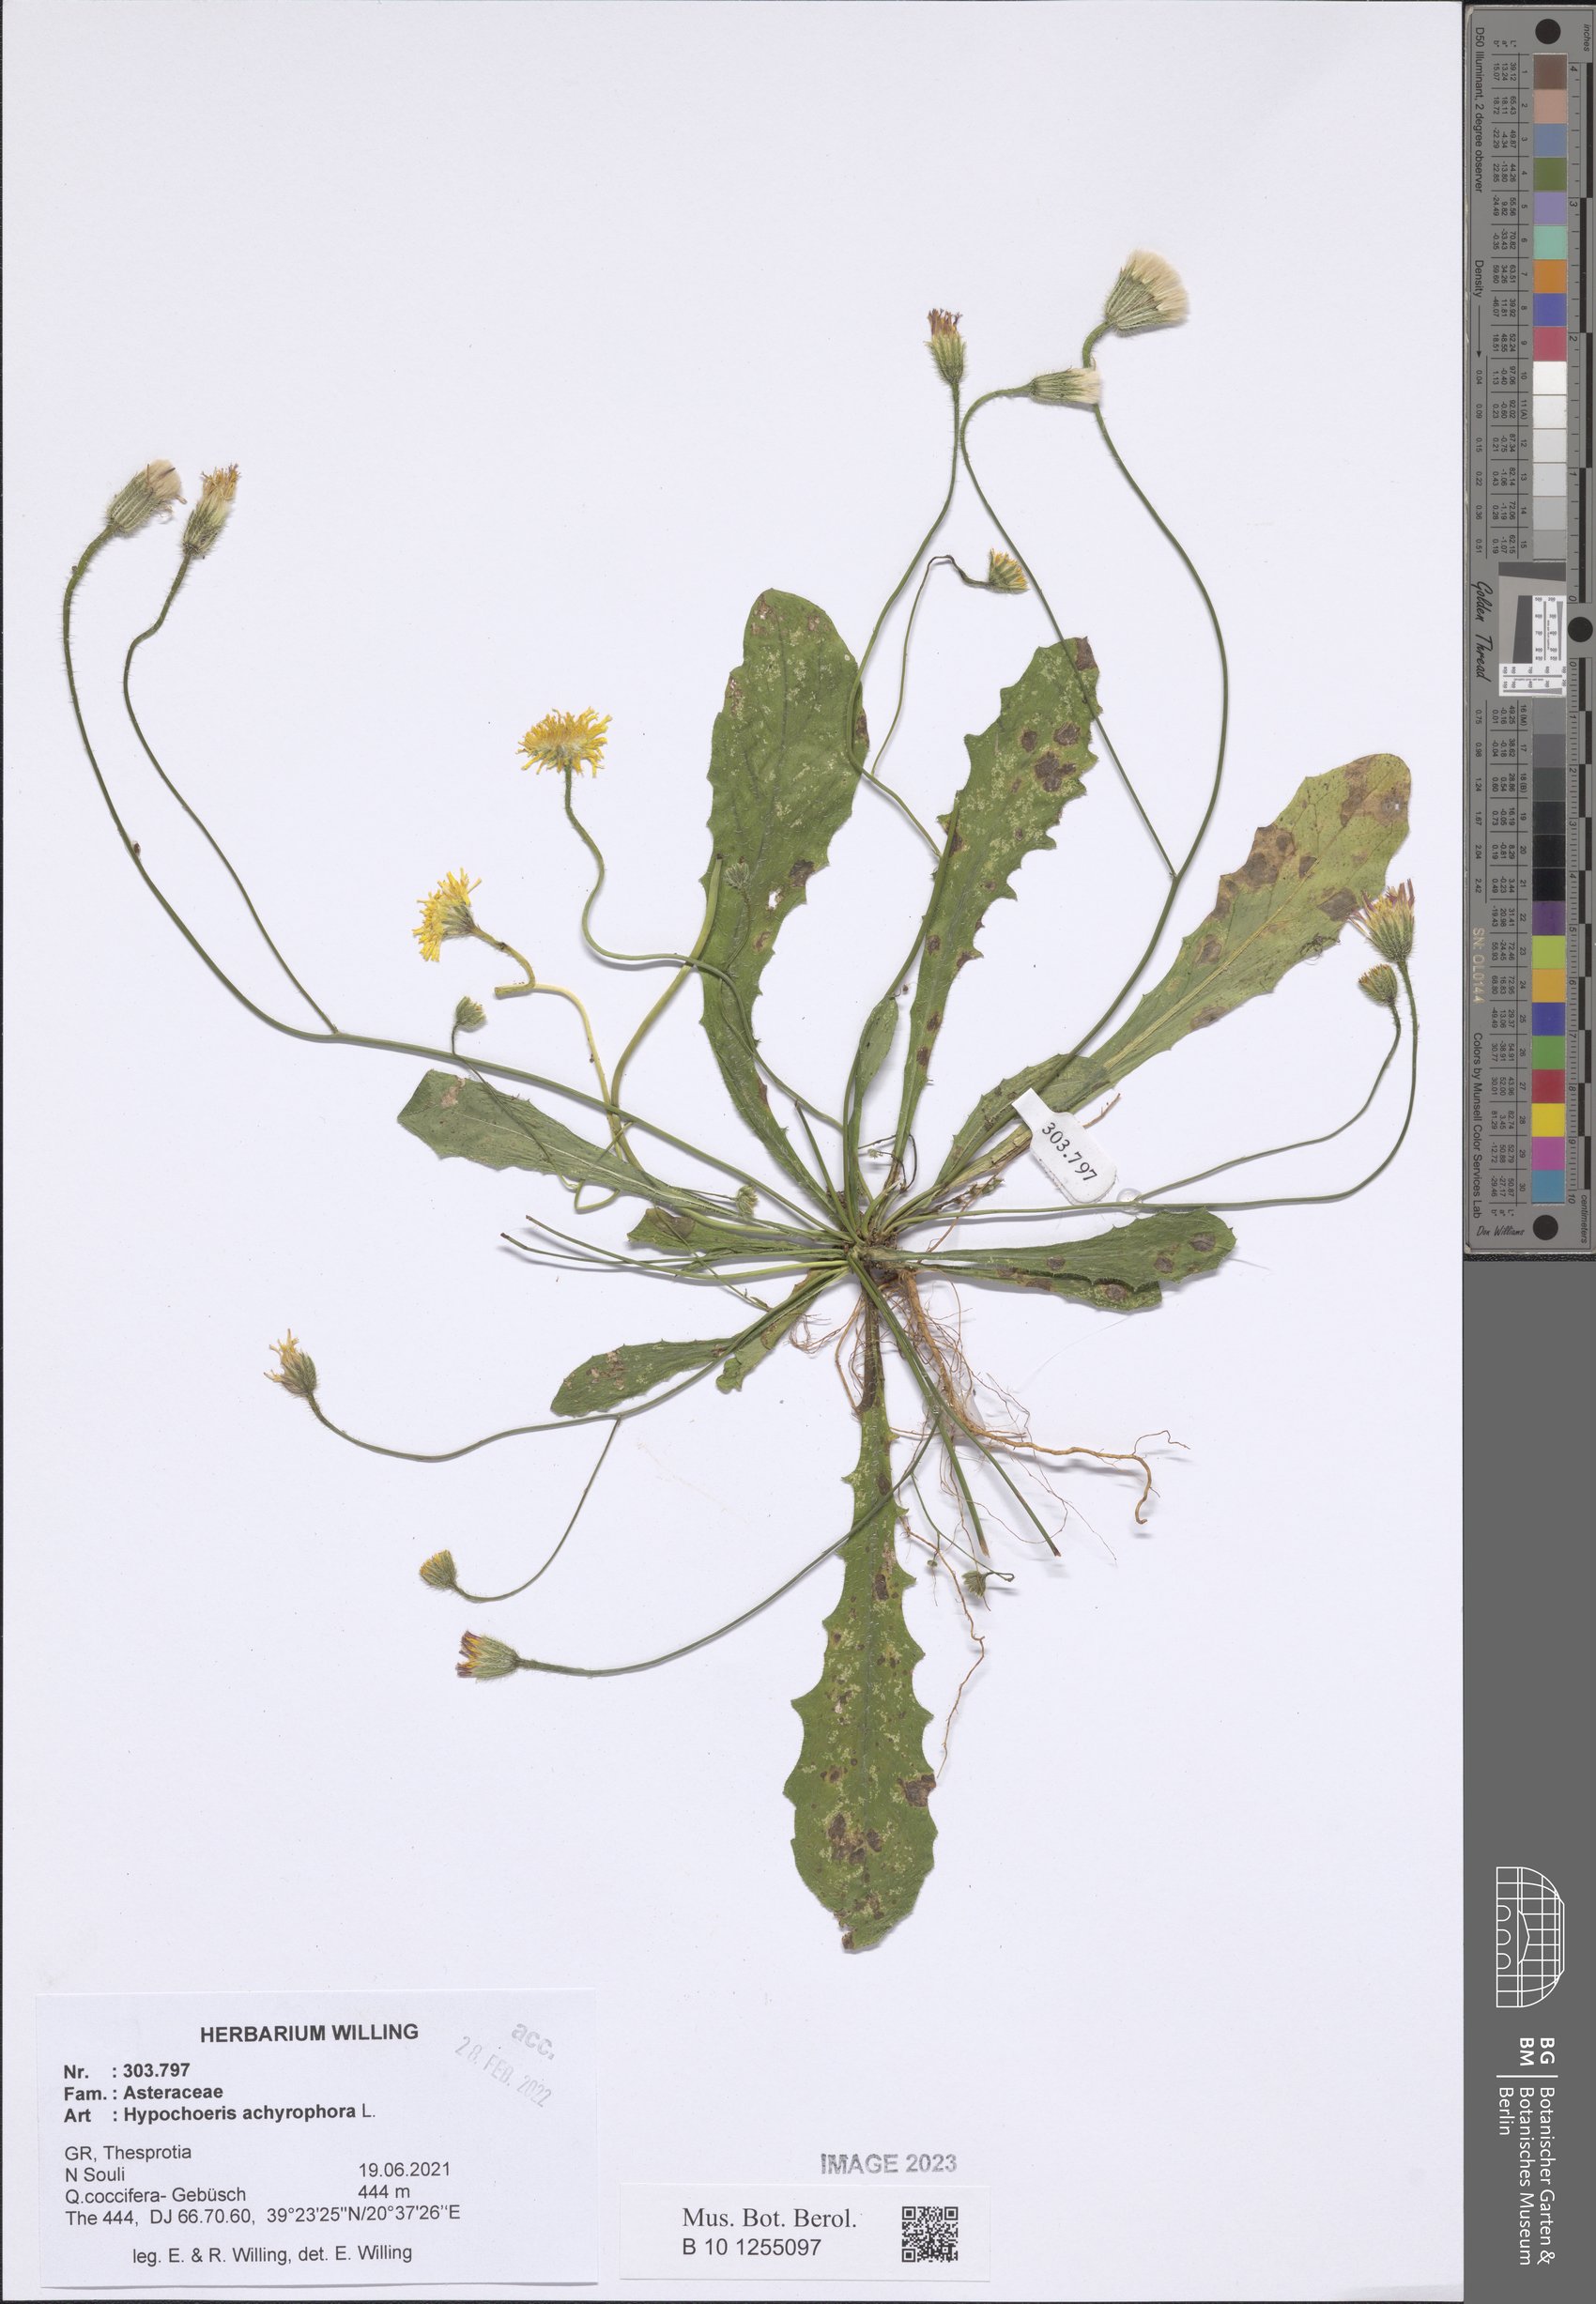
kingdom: Plantae
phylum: Tracheophyta
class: Magnoliopsida
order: Asterales
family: Asteraceae
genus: Achyrophorus
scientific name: Achyrophorus valdesii
